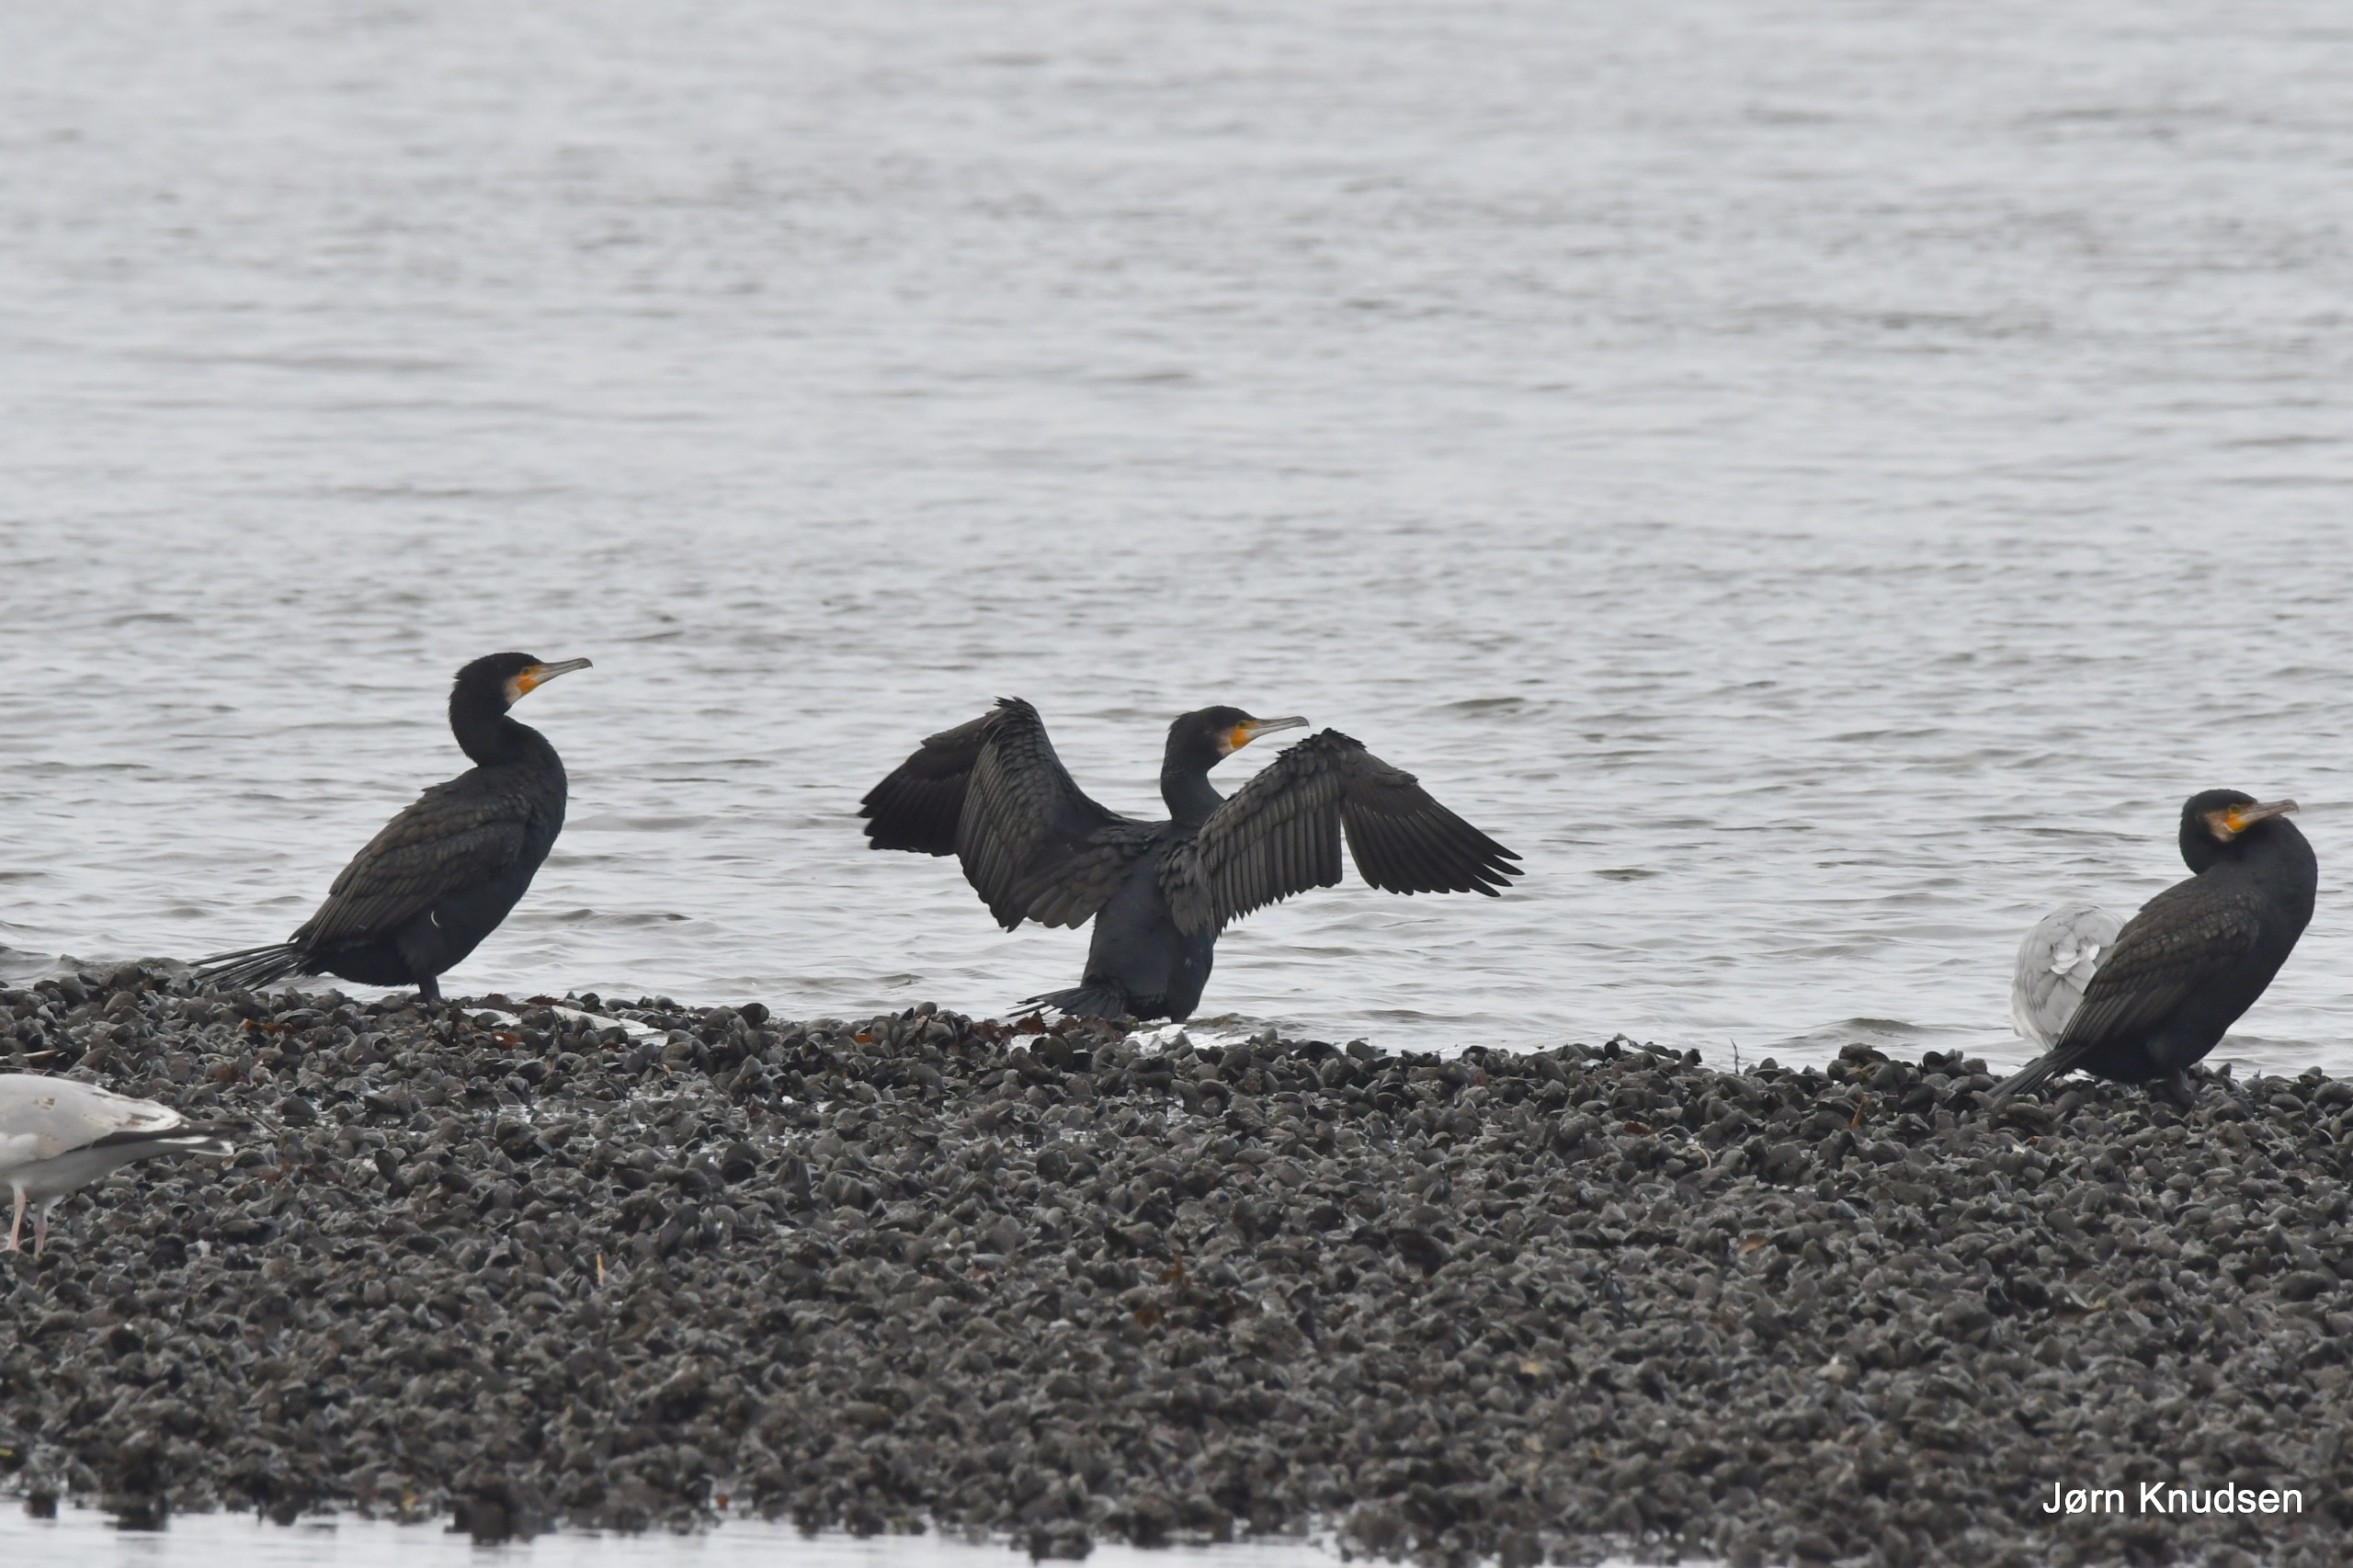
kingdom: Animalia
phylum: Chordata
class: Aves
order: Suliformes
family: Phalacrocoracidae
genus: Phalacrocorax
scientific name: Phalacrocorax carbo
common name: Skarv
